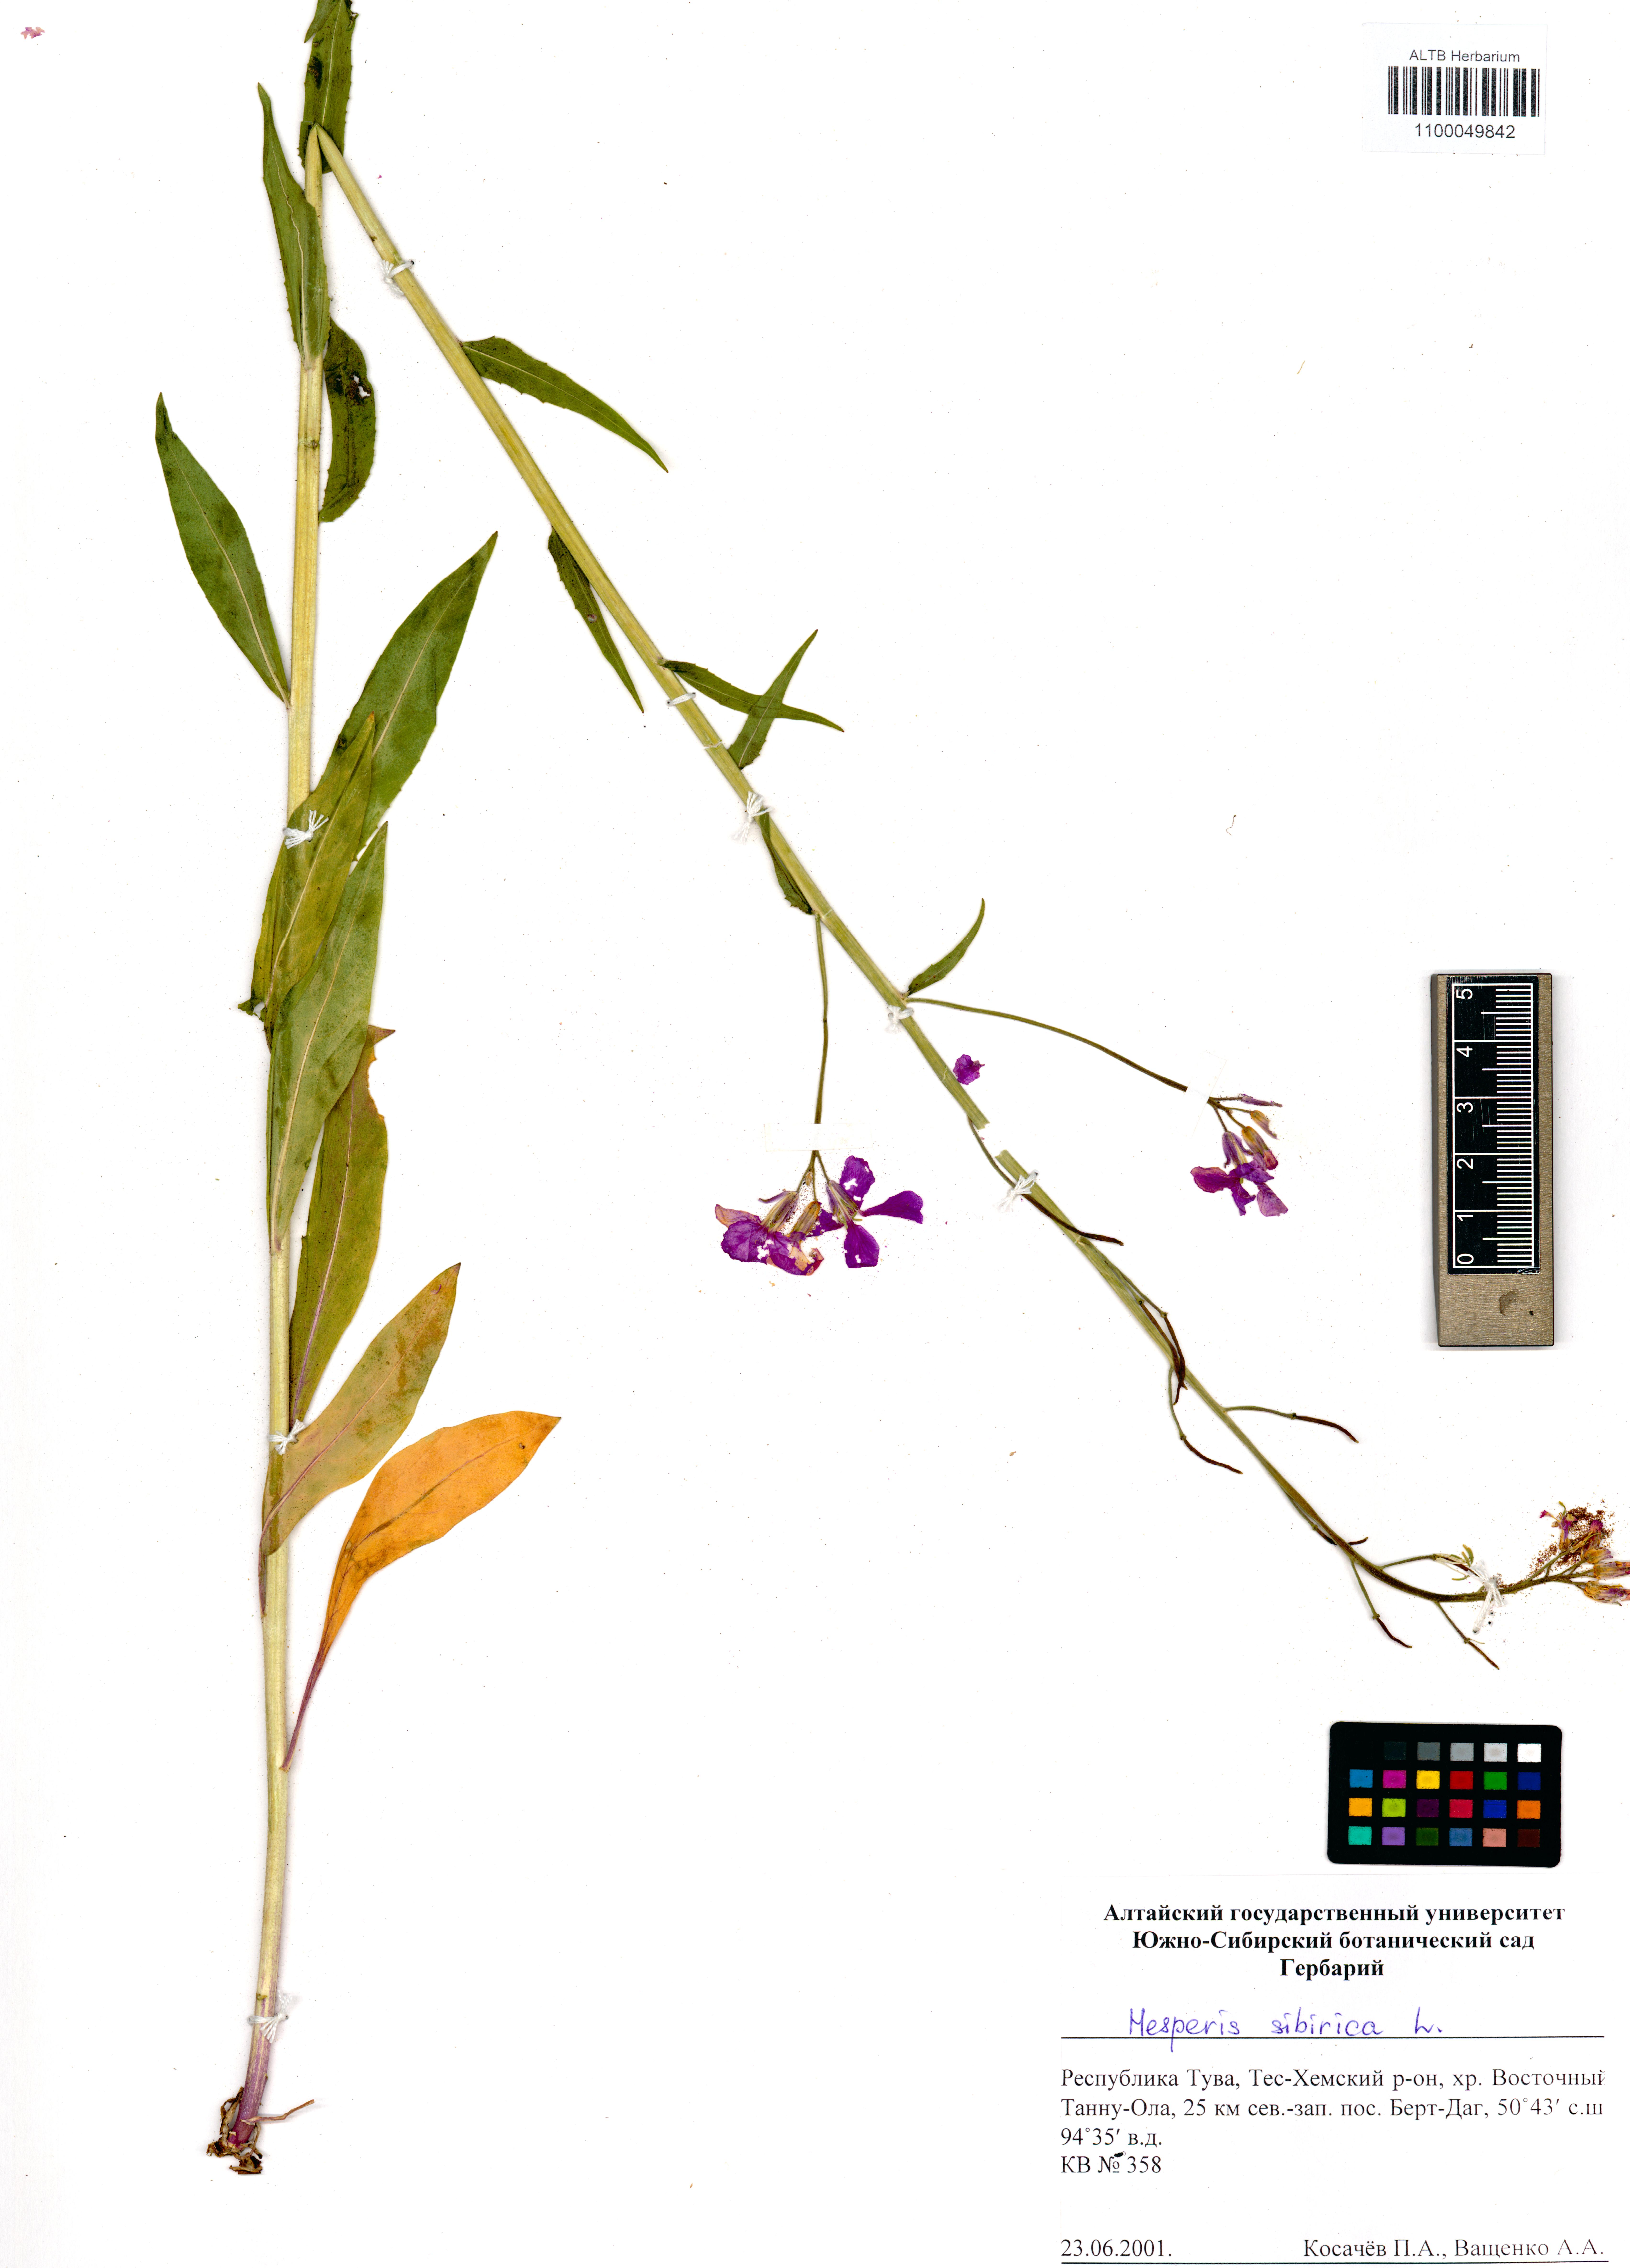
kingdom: Plantae
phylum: Tracheophyta
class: Magnoliopsida
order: Brassicales
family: Brassicaceae
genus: Hesperis
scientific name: Hesperis sibirica
